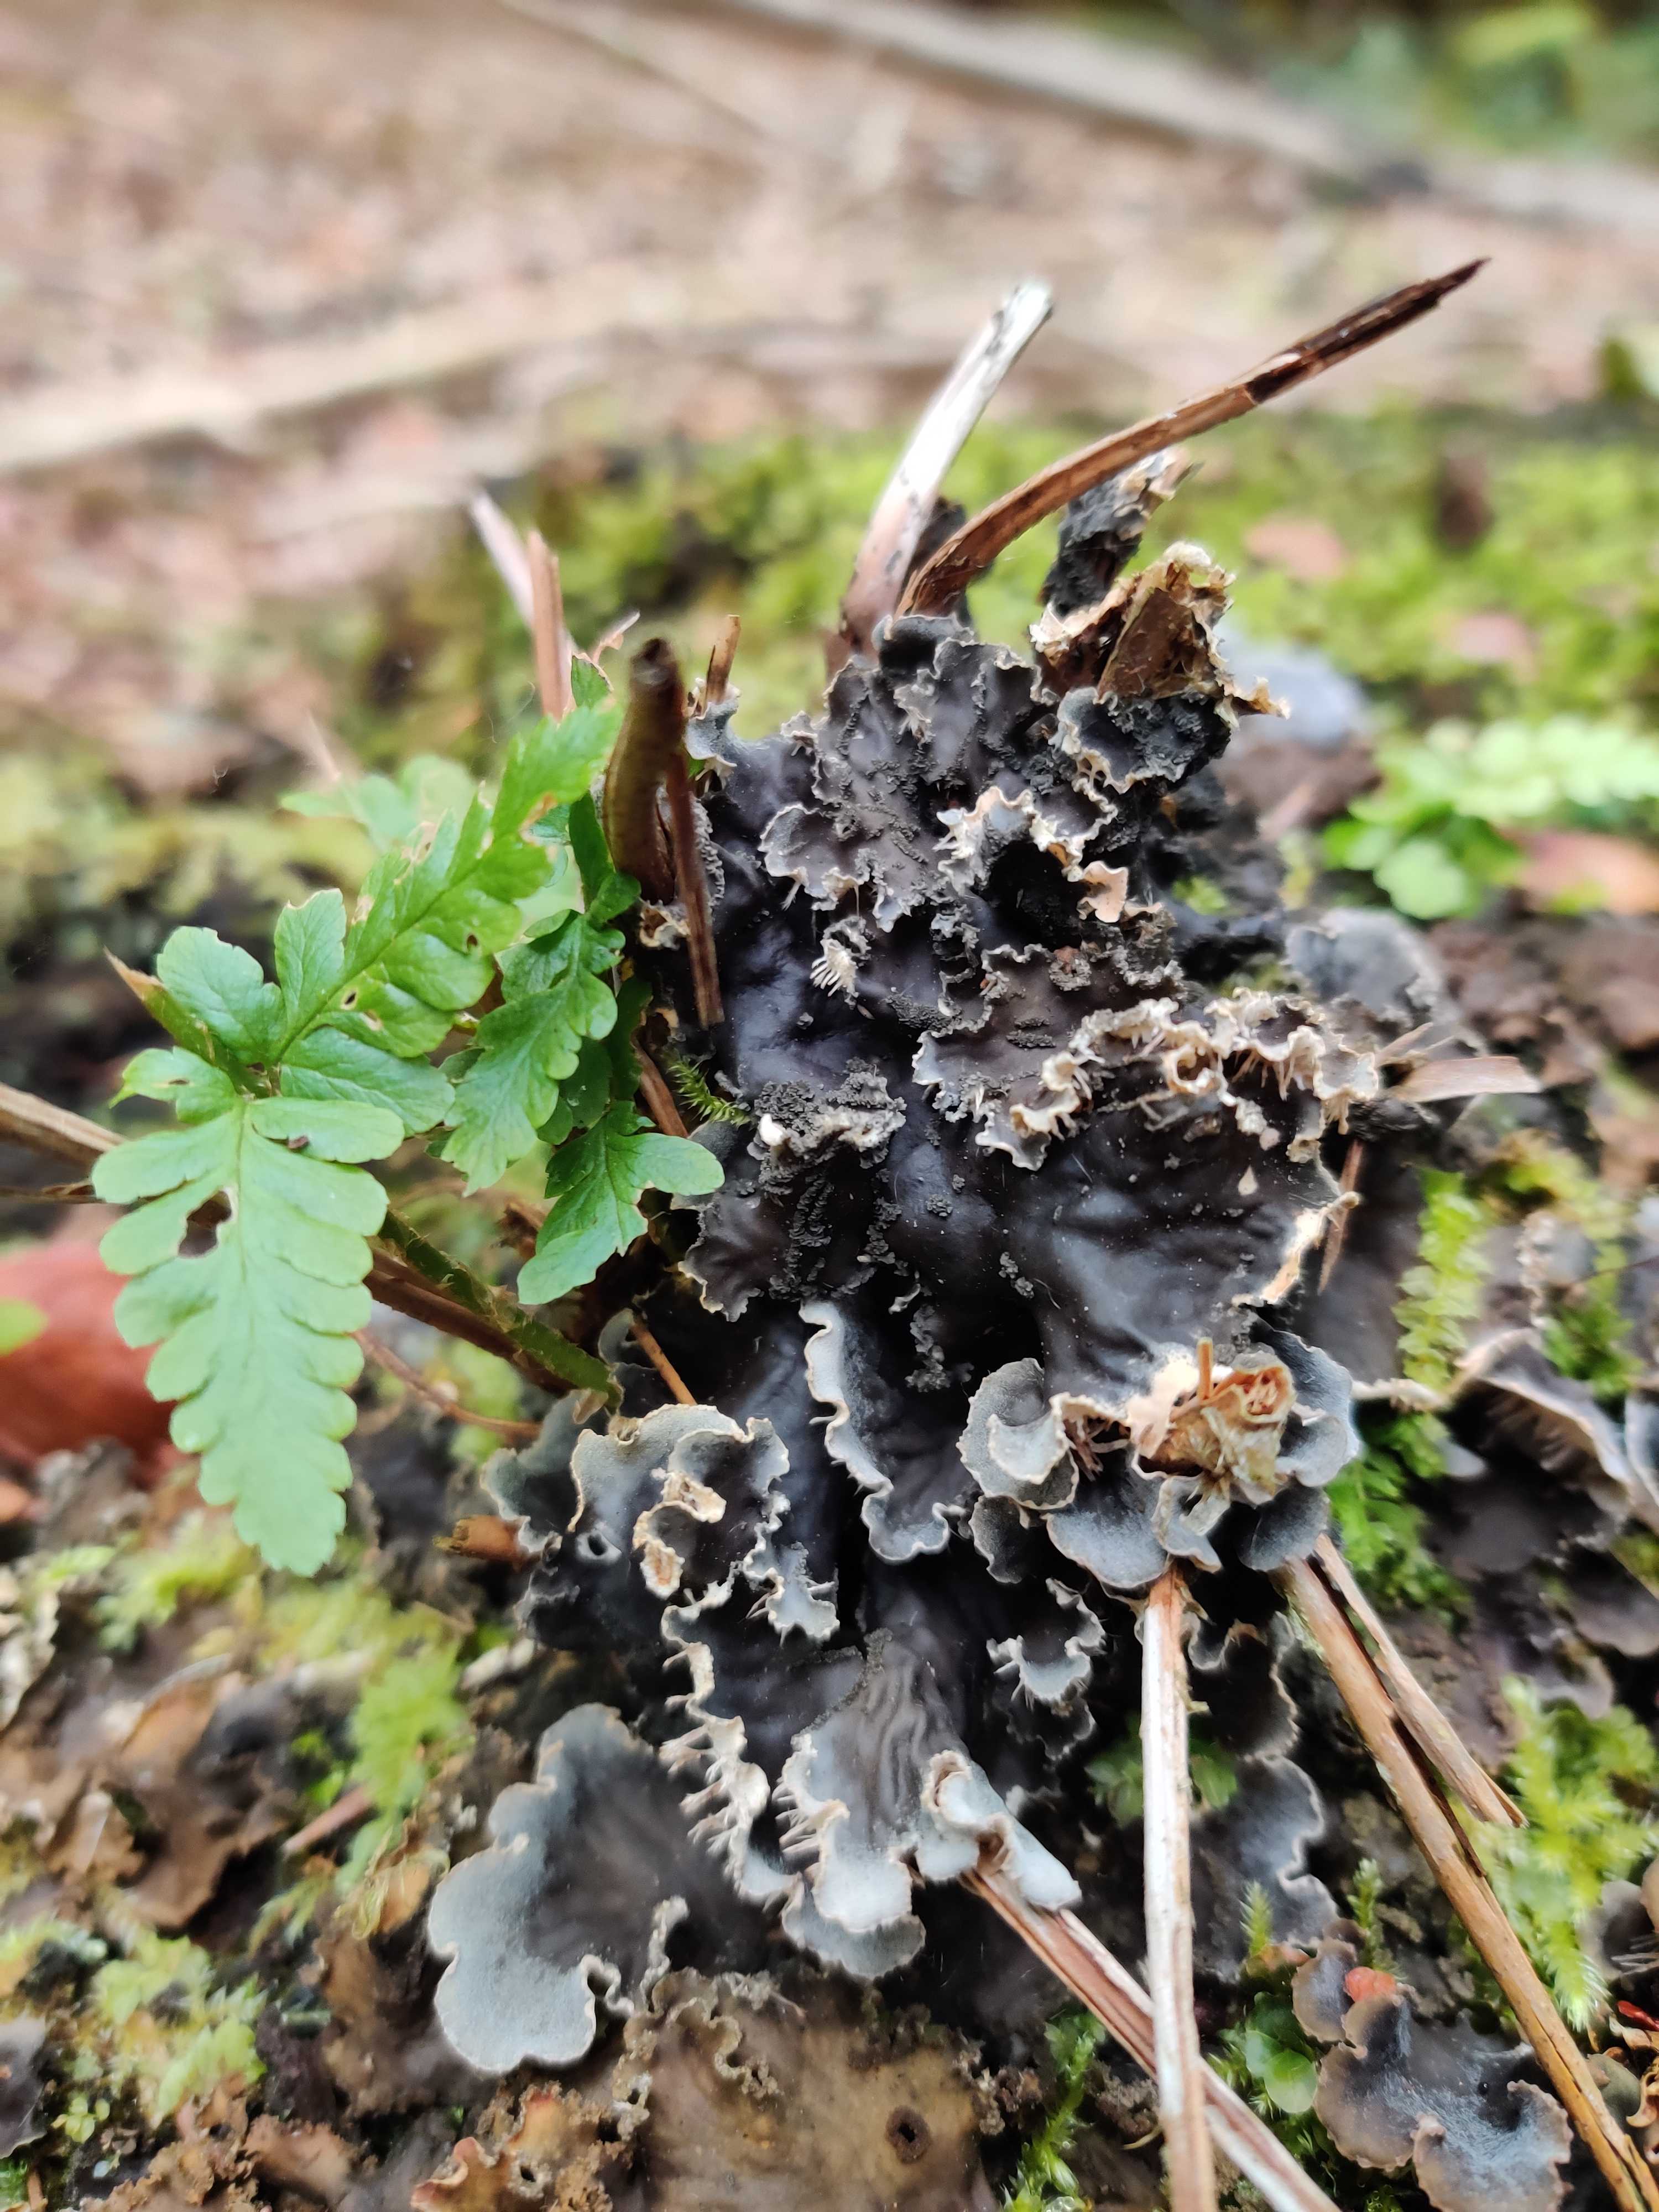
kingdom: Fungi
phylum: Ascomycota
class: Lecanoromycetes
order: Peltigerales
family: Peltigeraceae
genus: Peltigera
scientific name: Peltigera praetextata
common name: kruset skjoldlav
